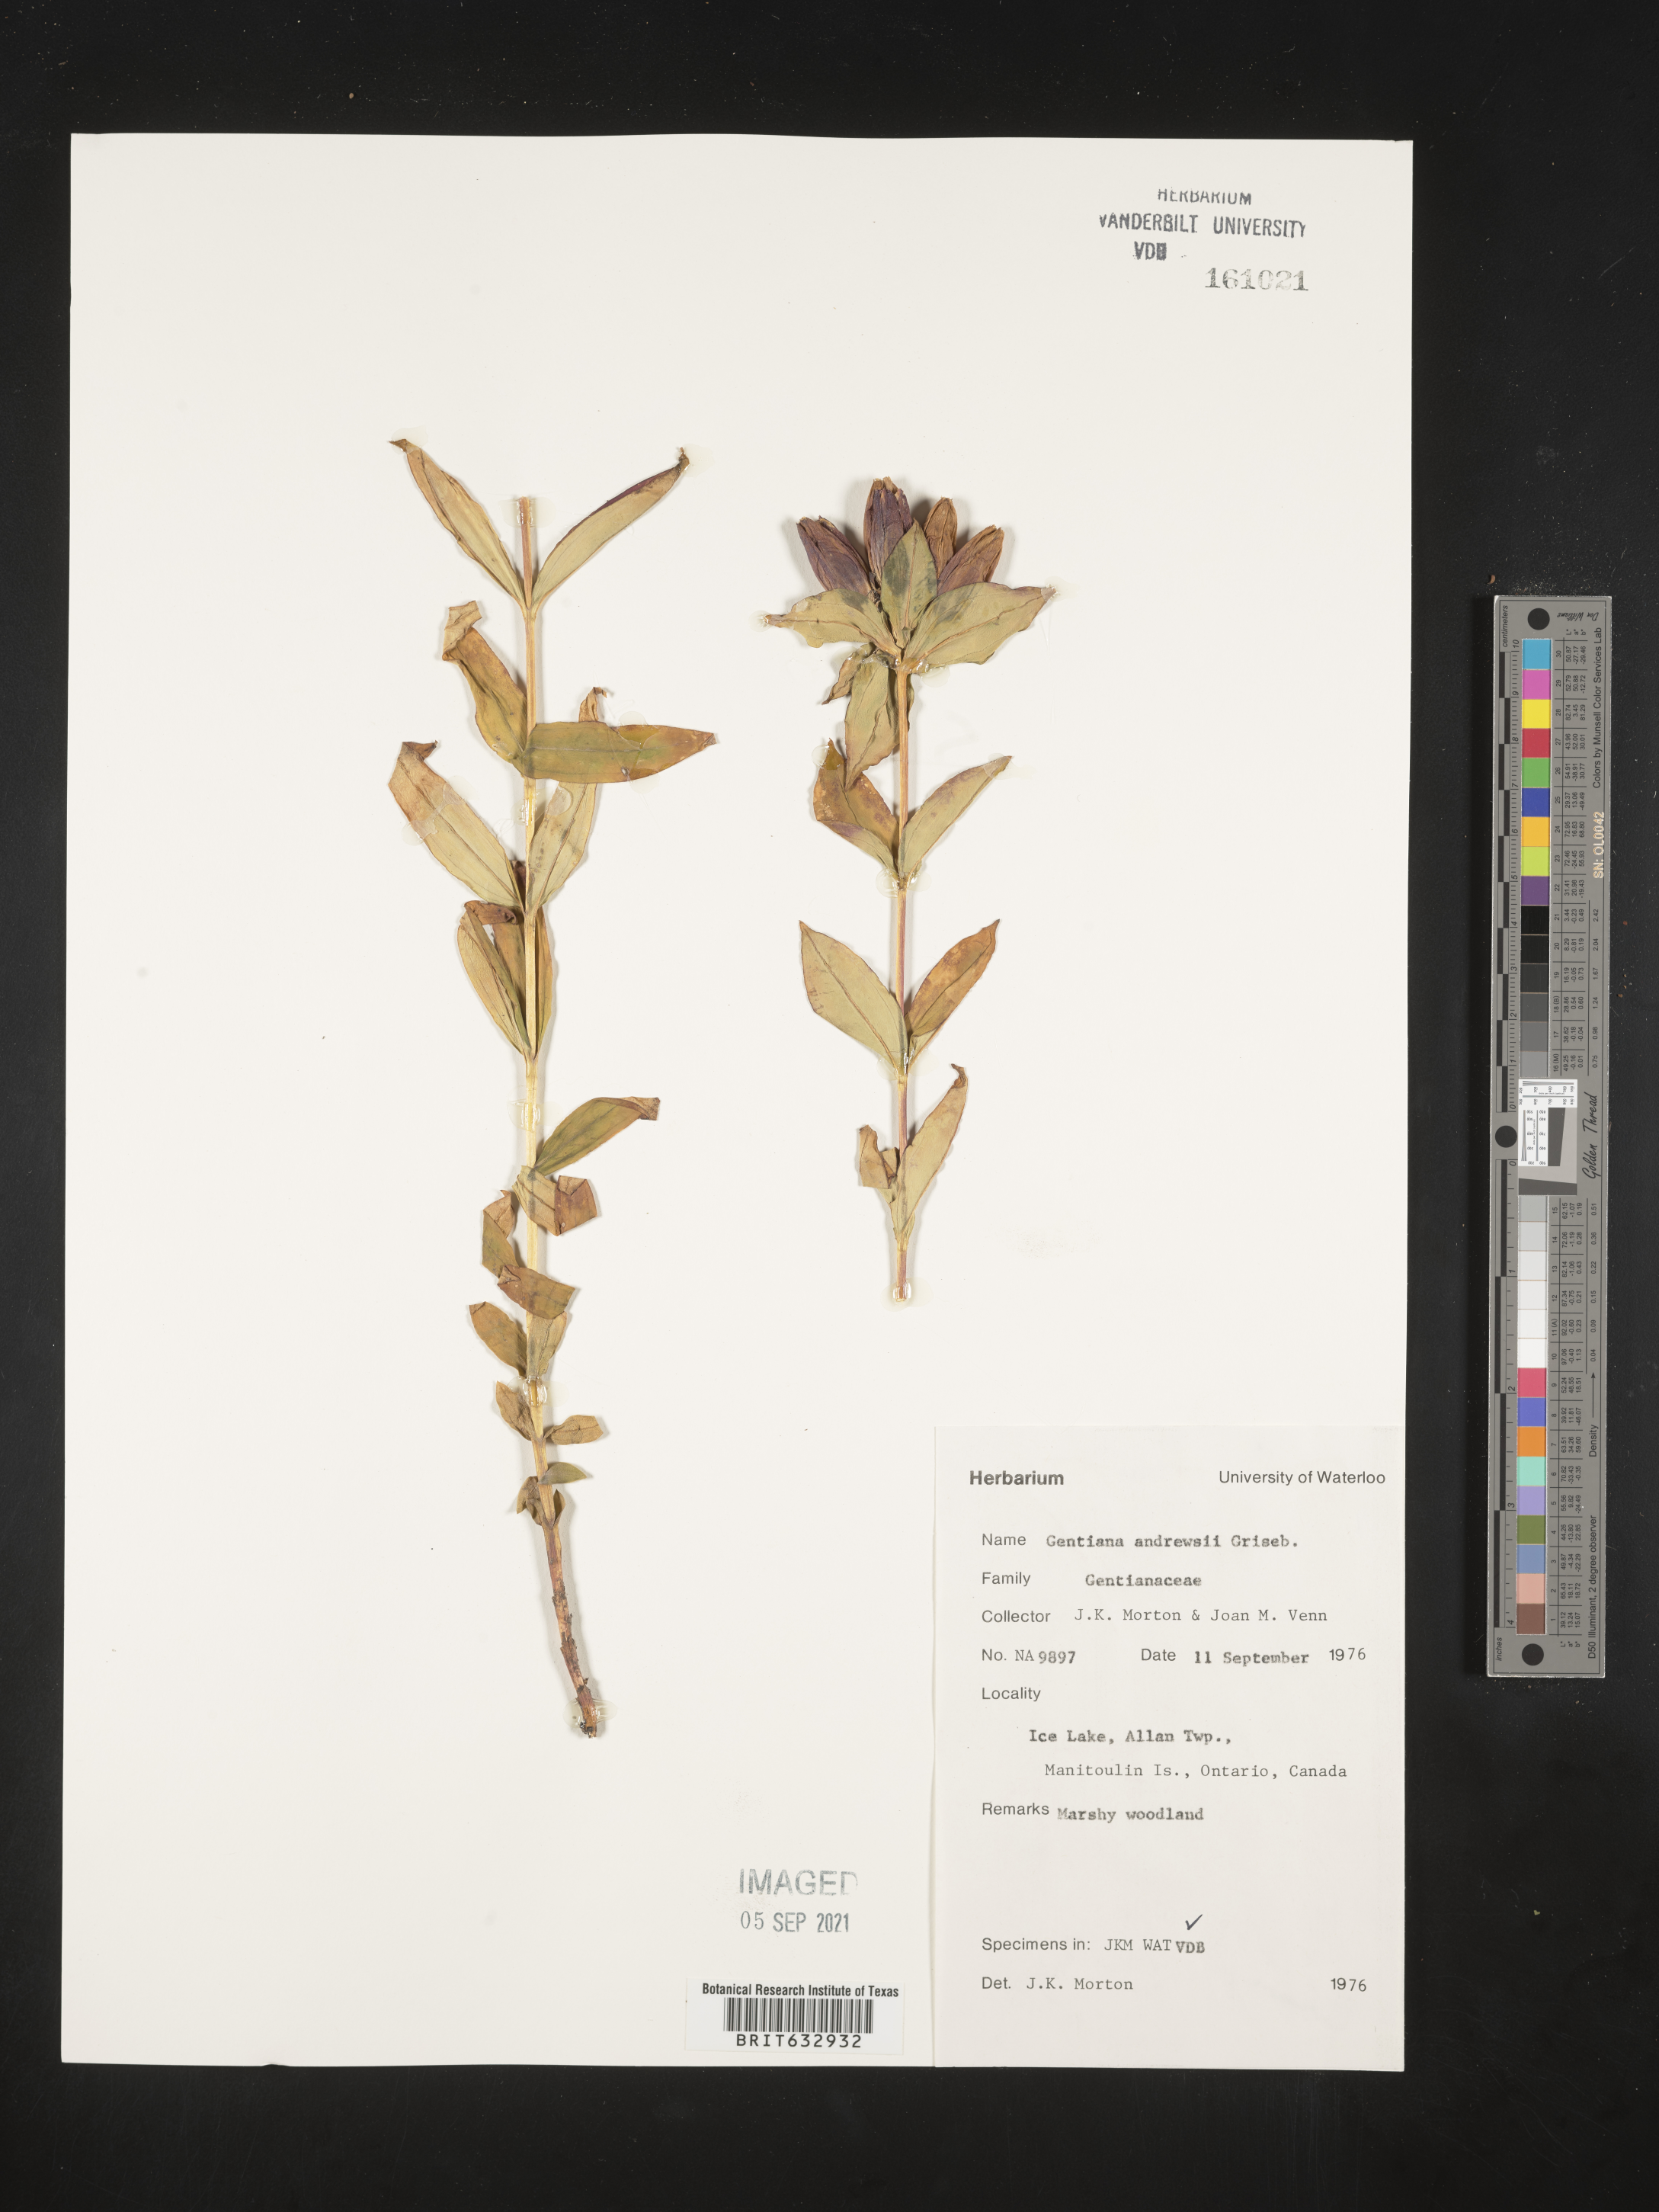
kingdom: Plantae
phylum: Tracheophyta
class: Magnoliopsida
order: Gentianales
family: Gentianaceae
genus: Gentiana
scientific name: Gentiana
